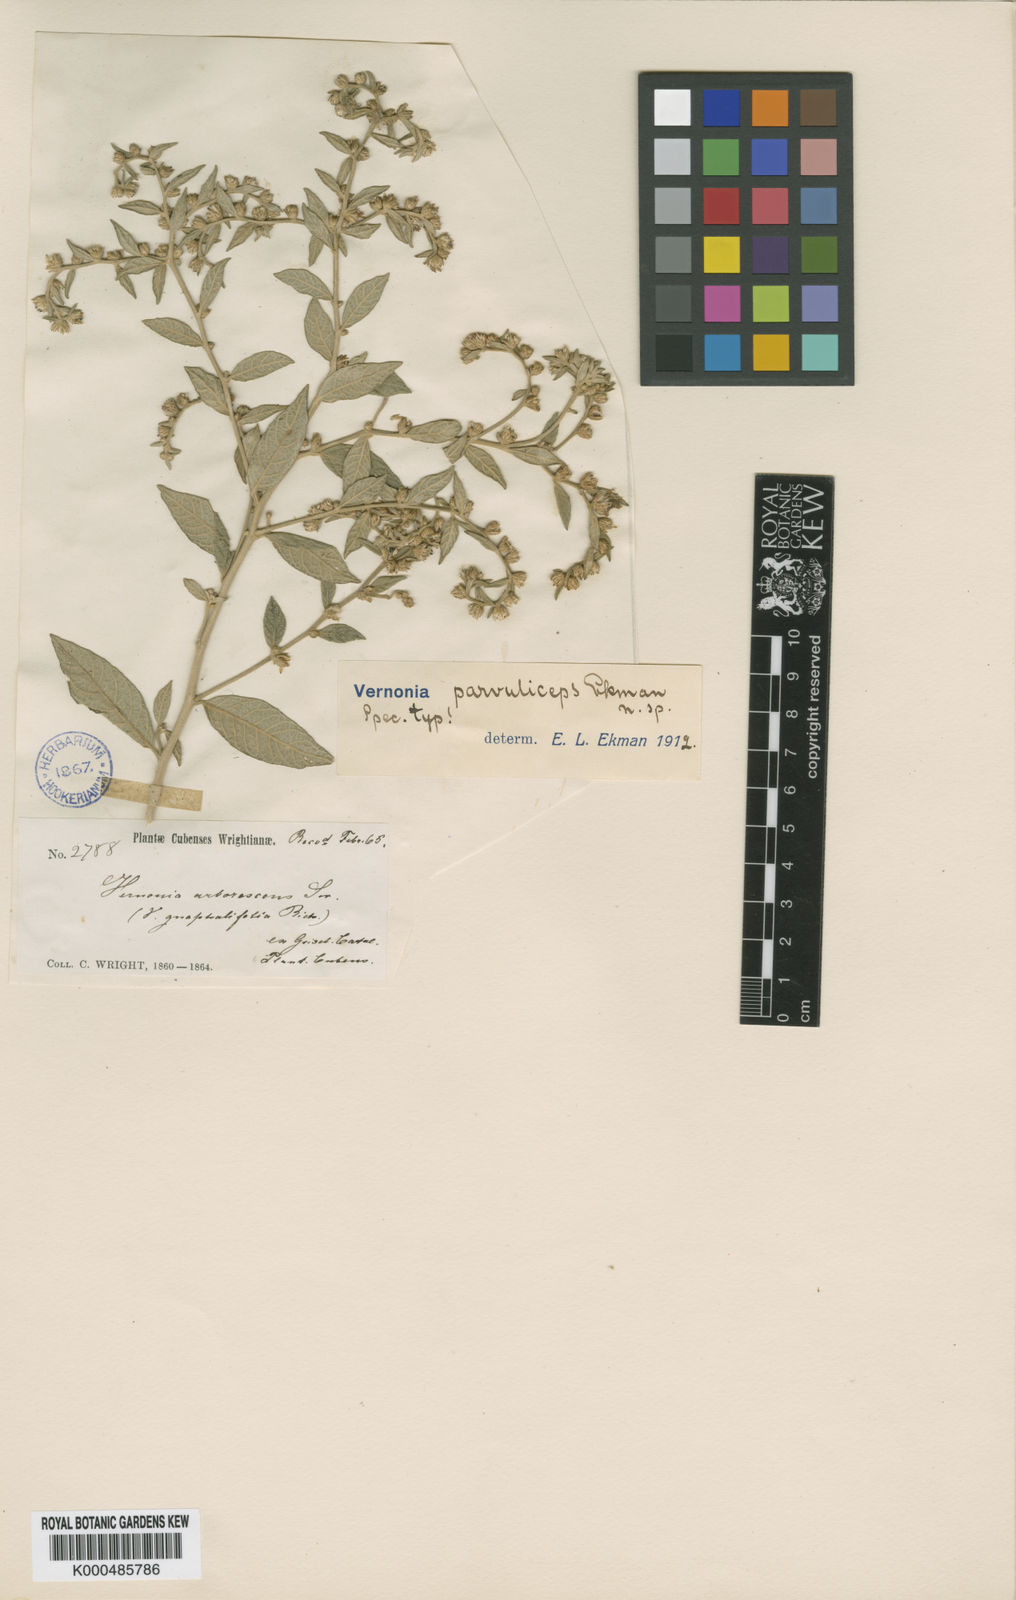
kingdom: Plantae
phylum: Tracheophyta
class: Magnoliopsida
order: Asterales
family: Asteraceae
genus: Lepidaploa
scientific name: Lepidaploa arborescens
